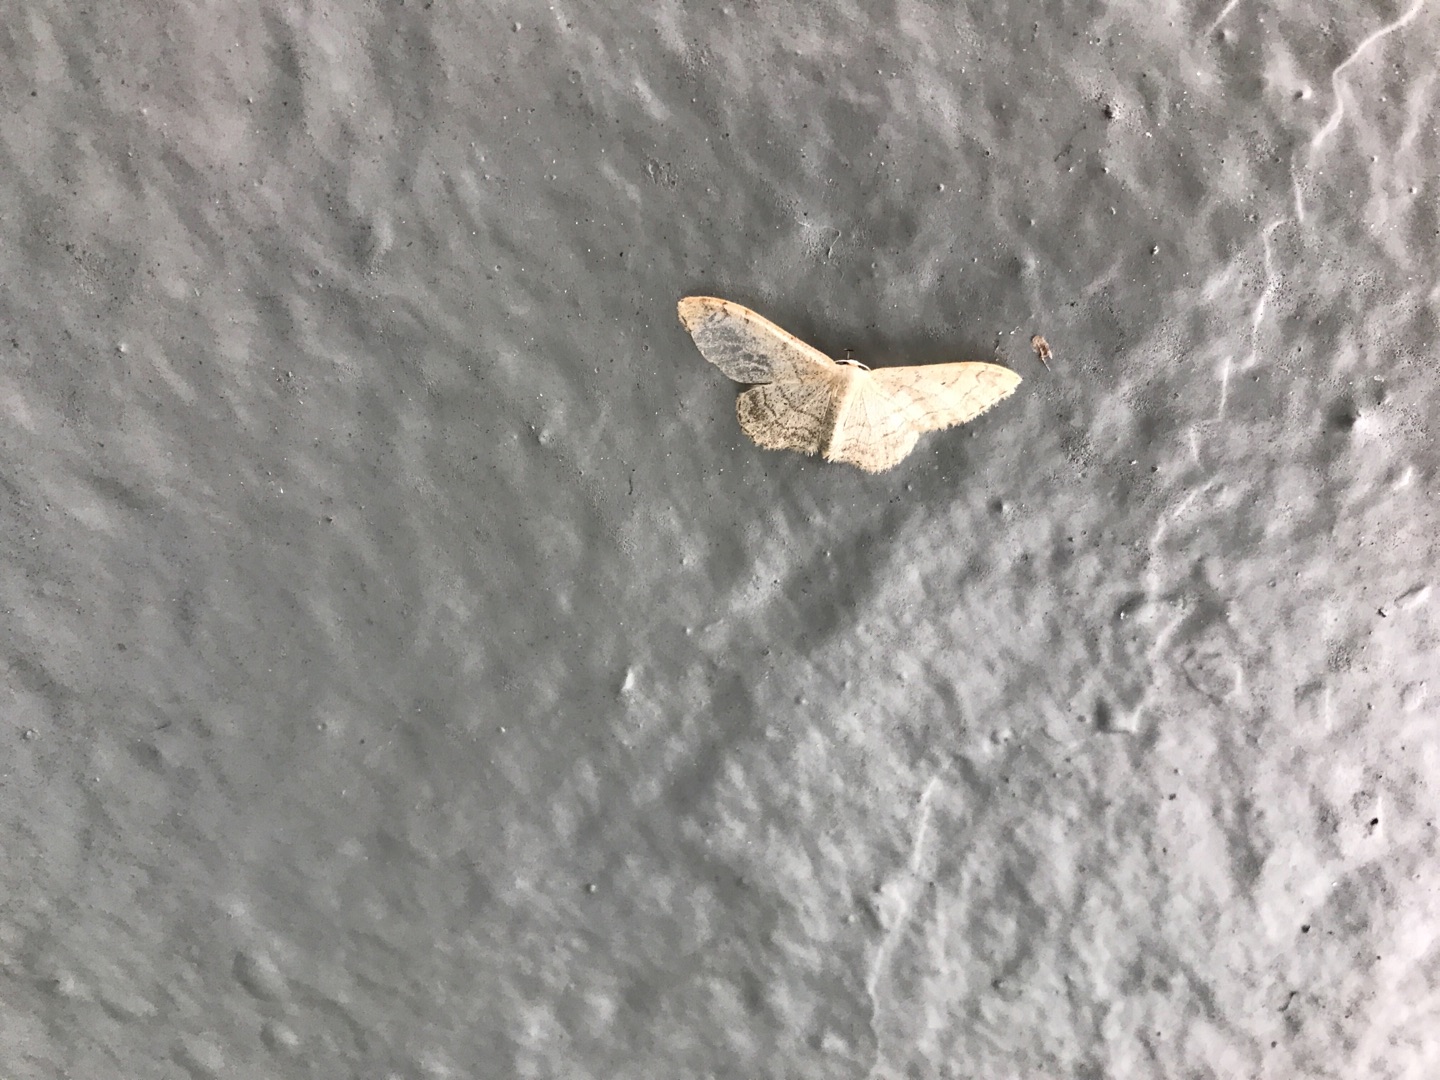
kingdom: Animalia
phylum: Arthropoda
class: Insecta
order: Lepidoptera
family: Geometridae
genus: Idaea
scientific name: Idaea aversata
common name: Vinkelstreget løvmåler
